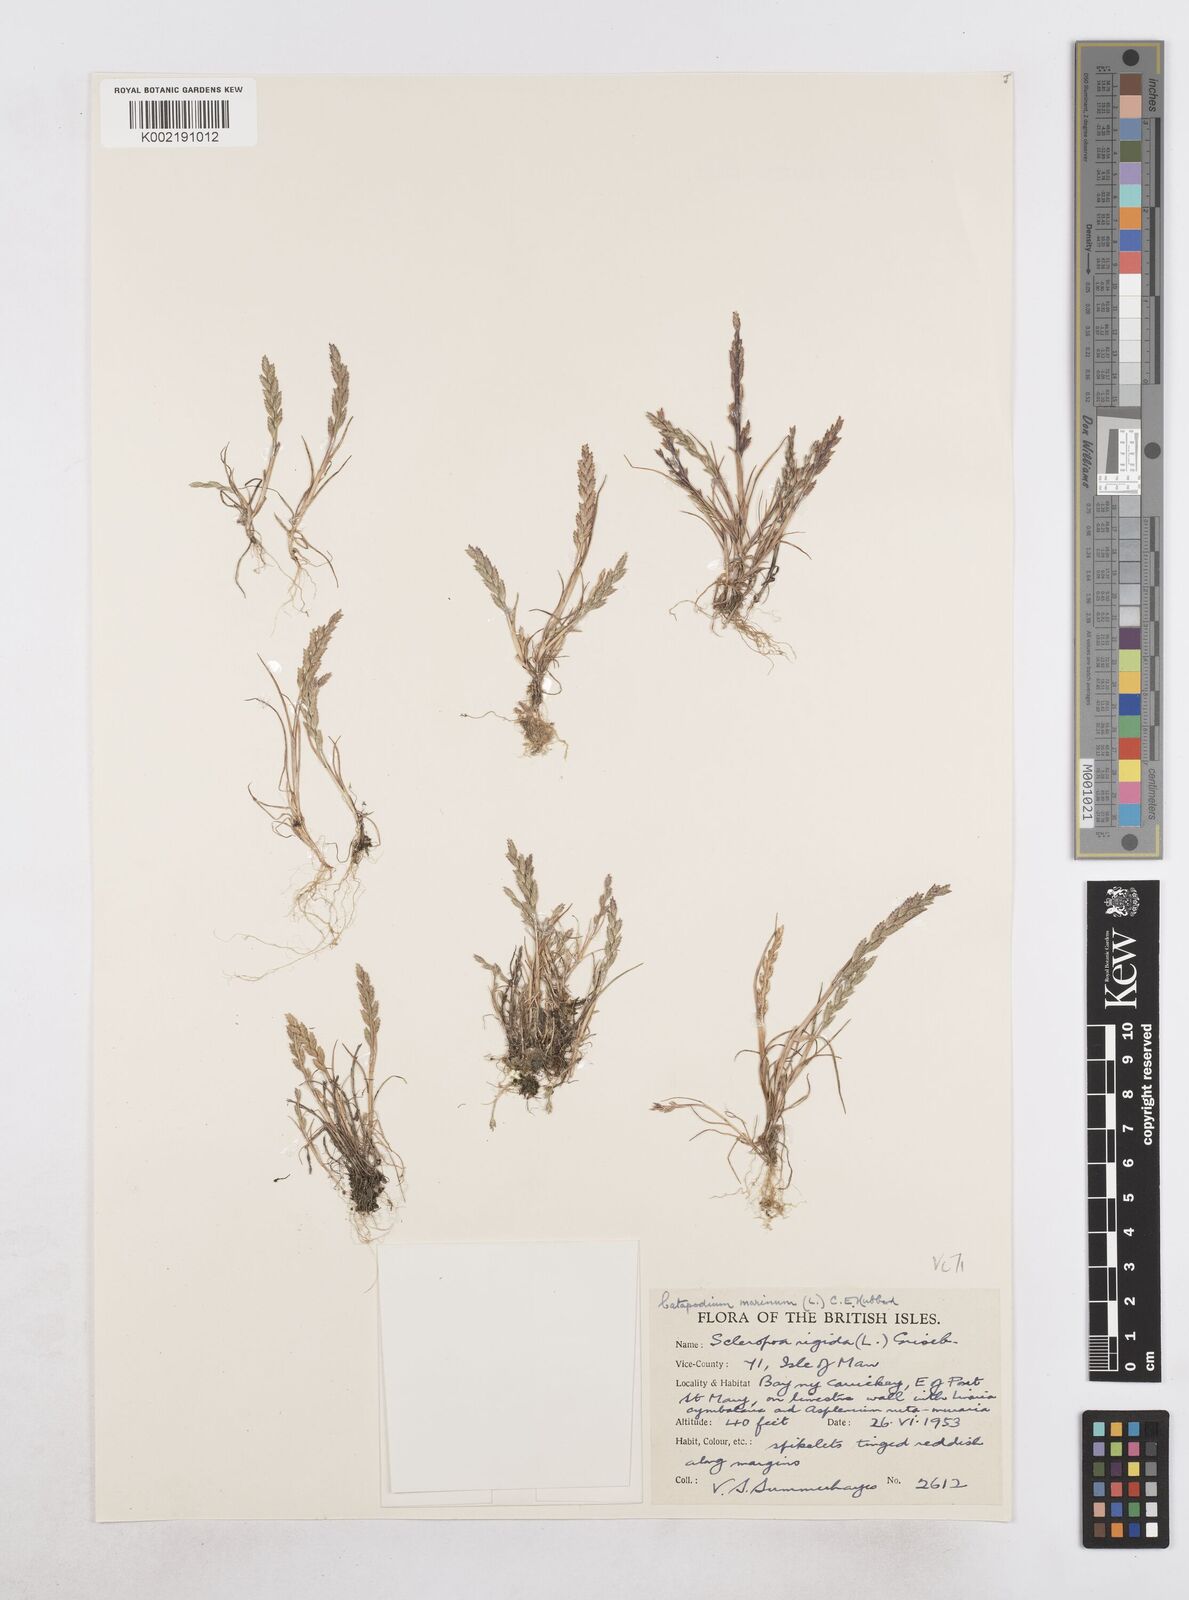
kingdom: Plantae
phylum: Tracheophyta
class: Liliopsida
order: Poales
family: Poaceae
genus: Catapodium
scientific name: Catapodium marinum
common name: Sea fern-grass
